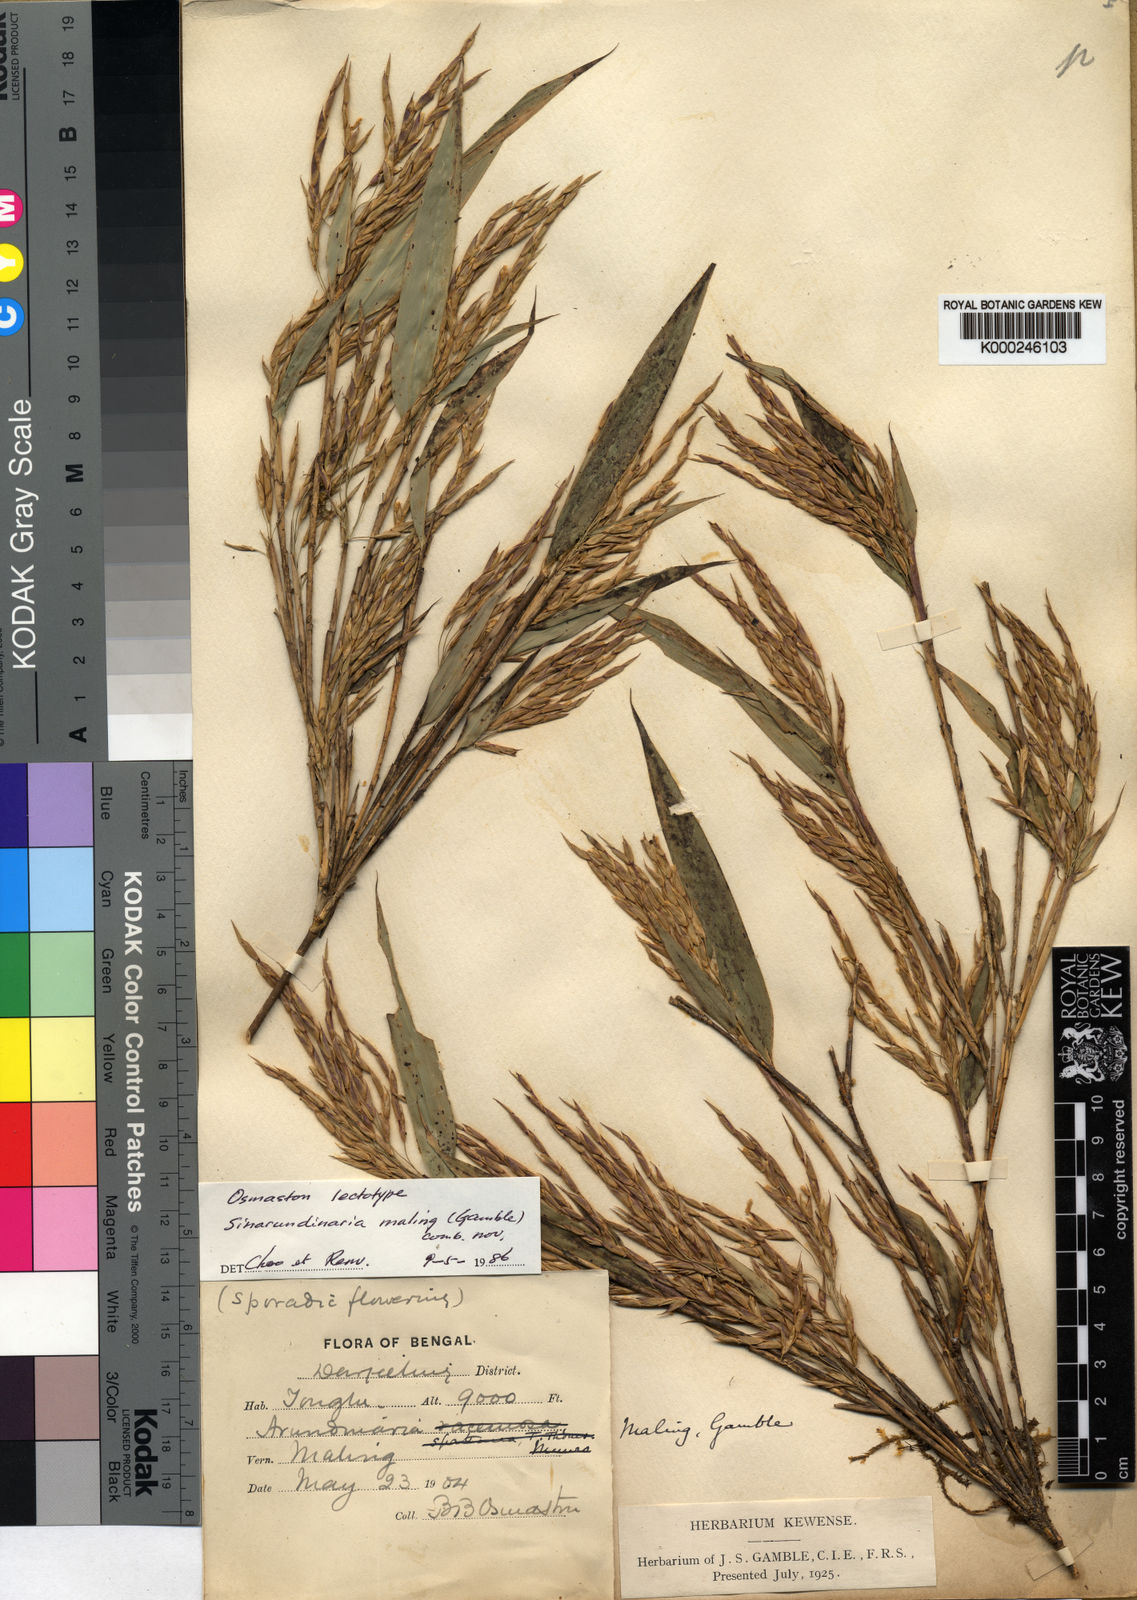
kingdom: Plantae
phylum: Tracheophyta
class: Liliopsida
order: Poales
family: Poaceae
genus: Yushania
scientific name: Yushania maling
